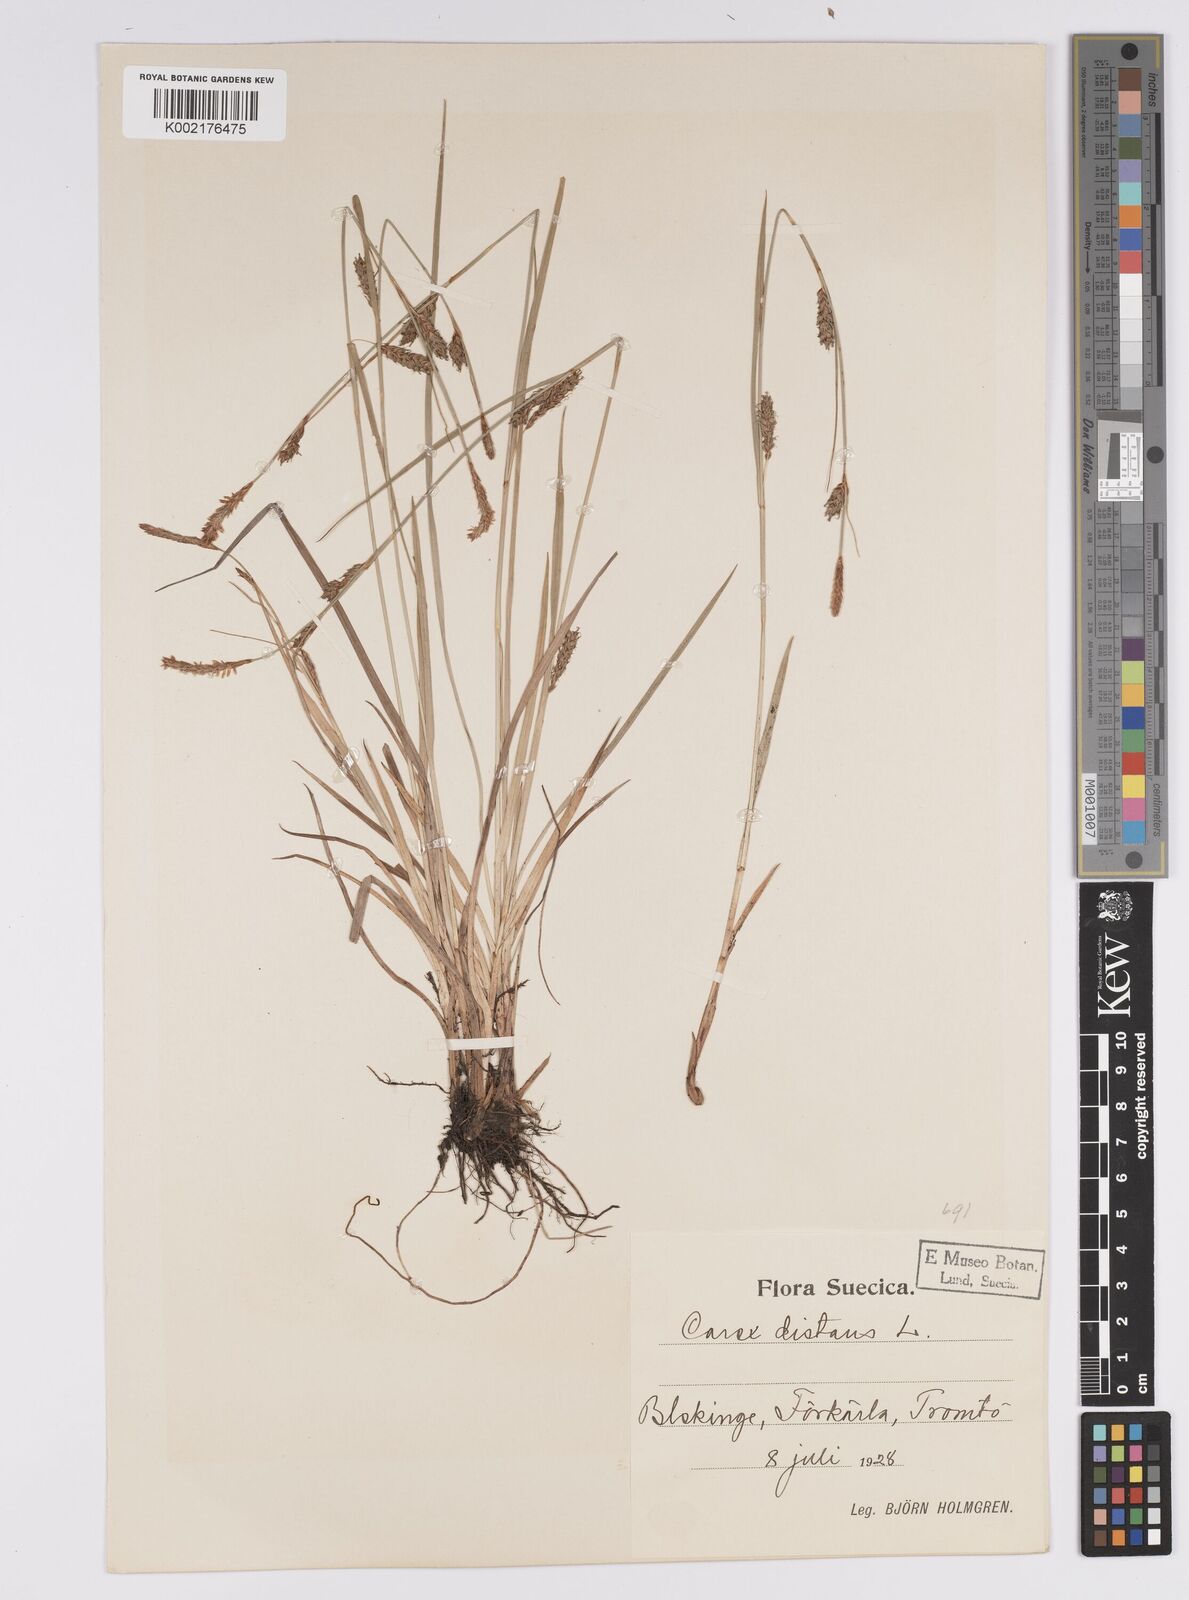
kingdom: Plantae
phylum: Tracheophyta
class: Liliopsida
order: Poales
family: Cyperaceae
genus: Carex
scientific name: Carex distans
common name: Distant sedge
